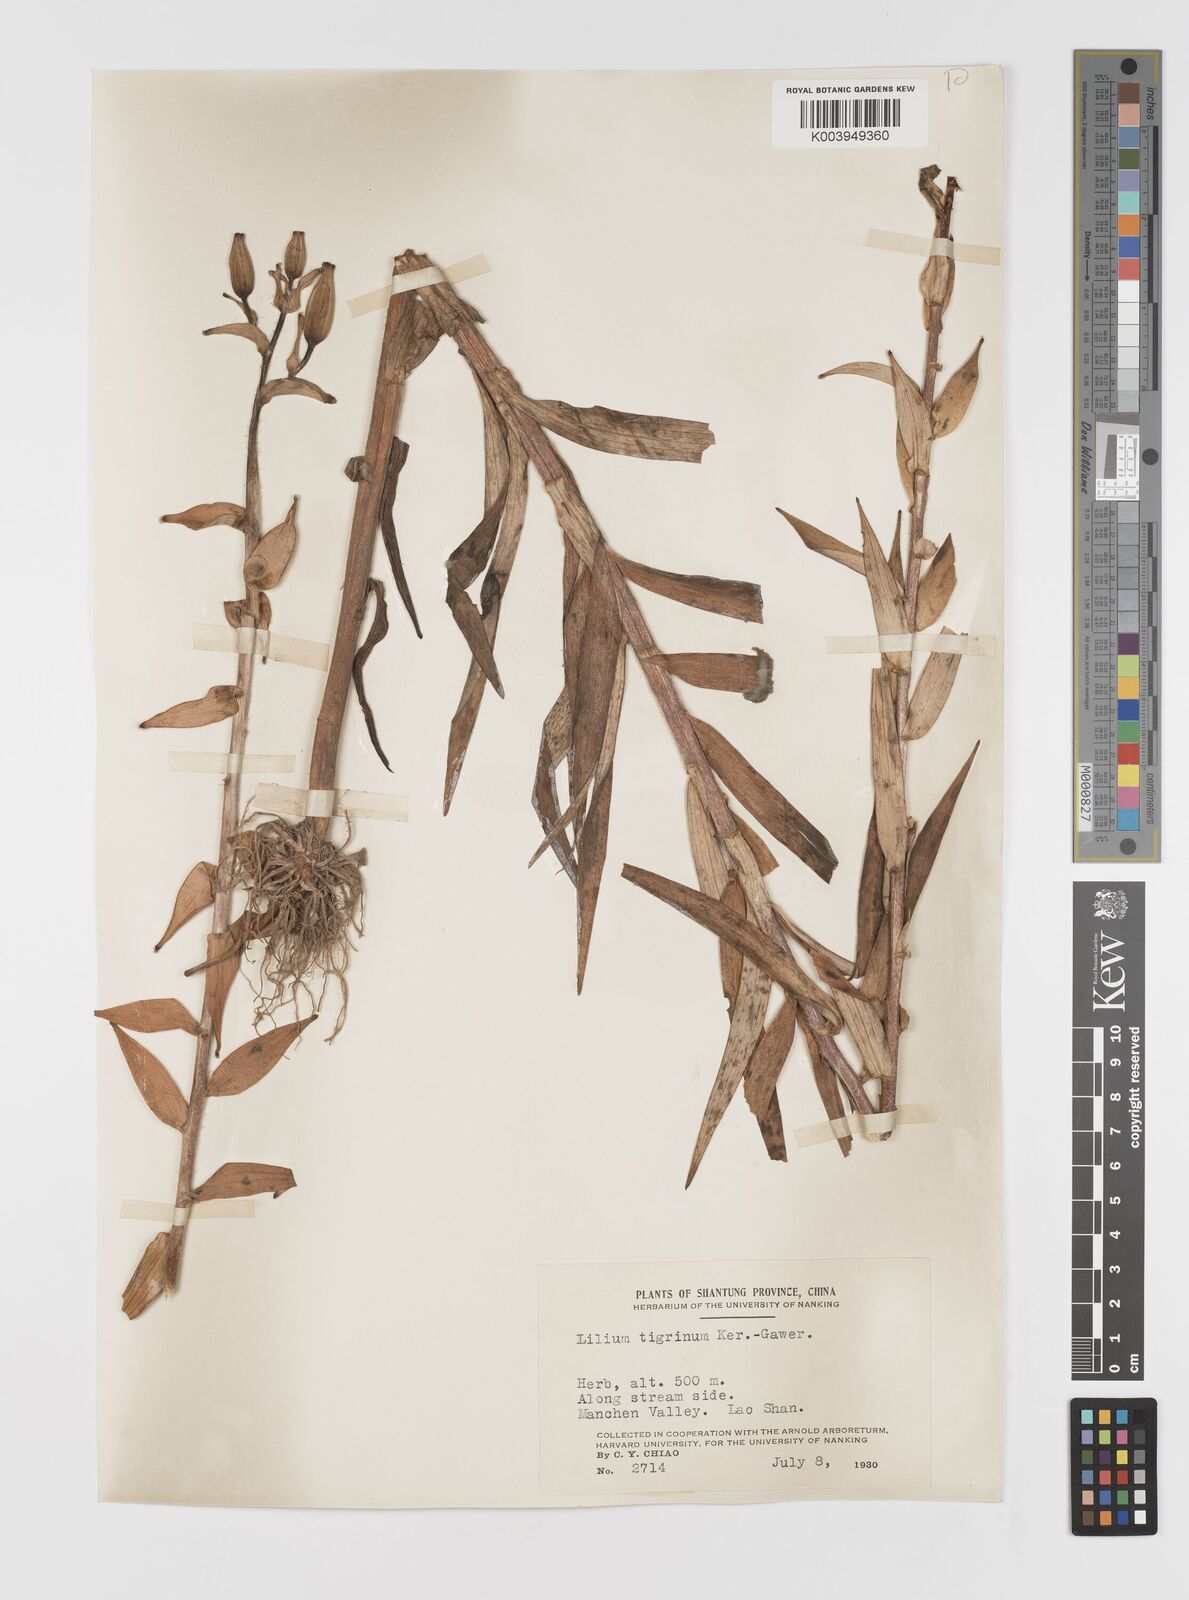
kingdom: Plantae
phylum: Tracheophyta
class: Liliopsida
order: Liliales
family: Liliaceae
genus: Lilium
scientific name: Lilium lancifolium
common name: Tiger lily
